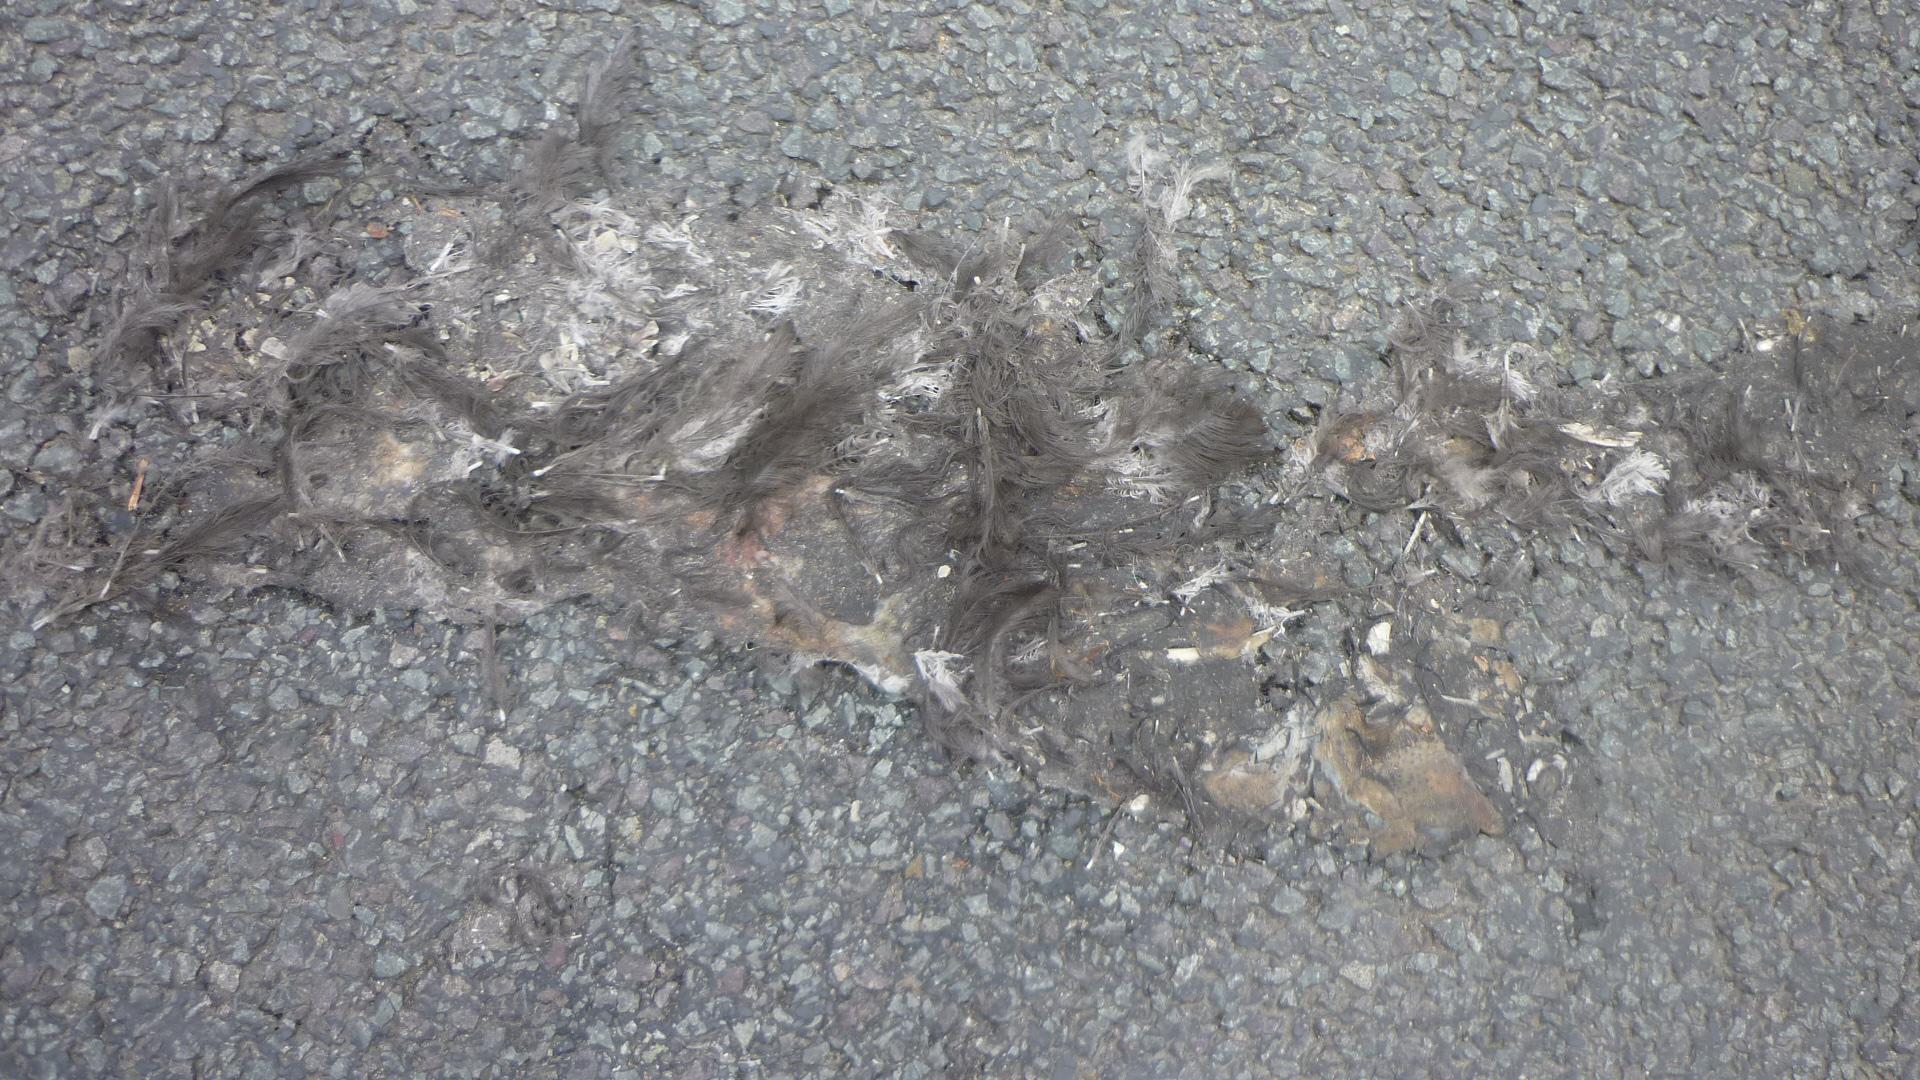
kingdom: Animalia
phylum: Chordata
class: Aves
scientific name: Aves
